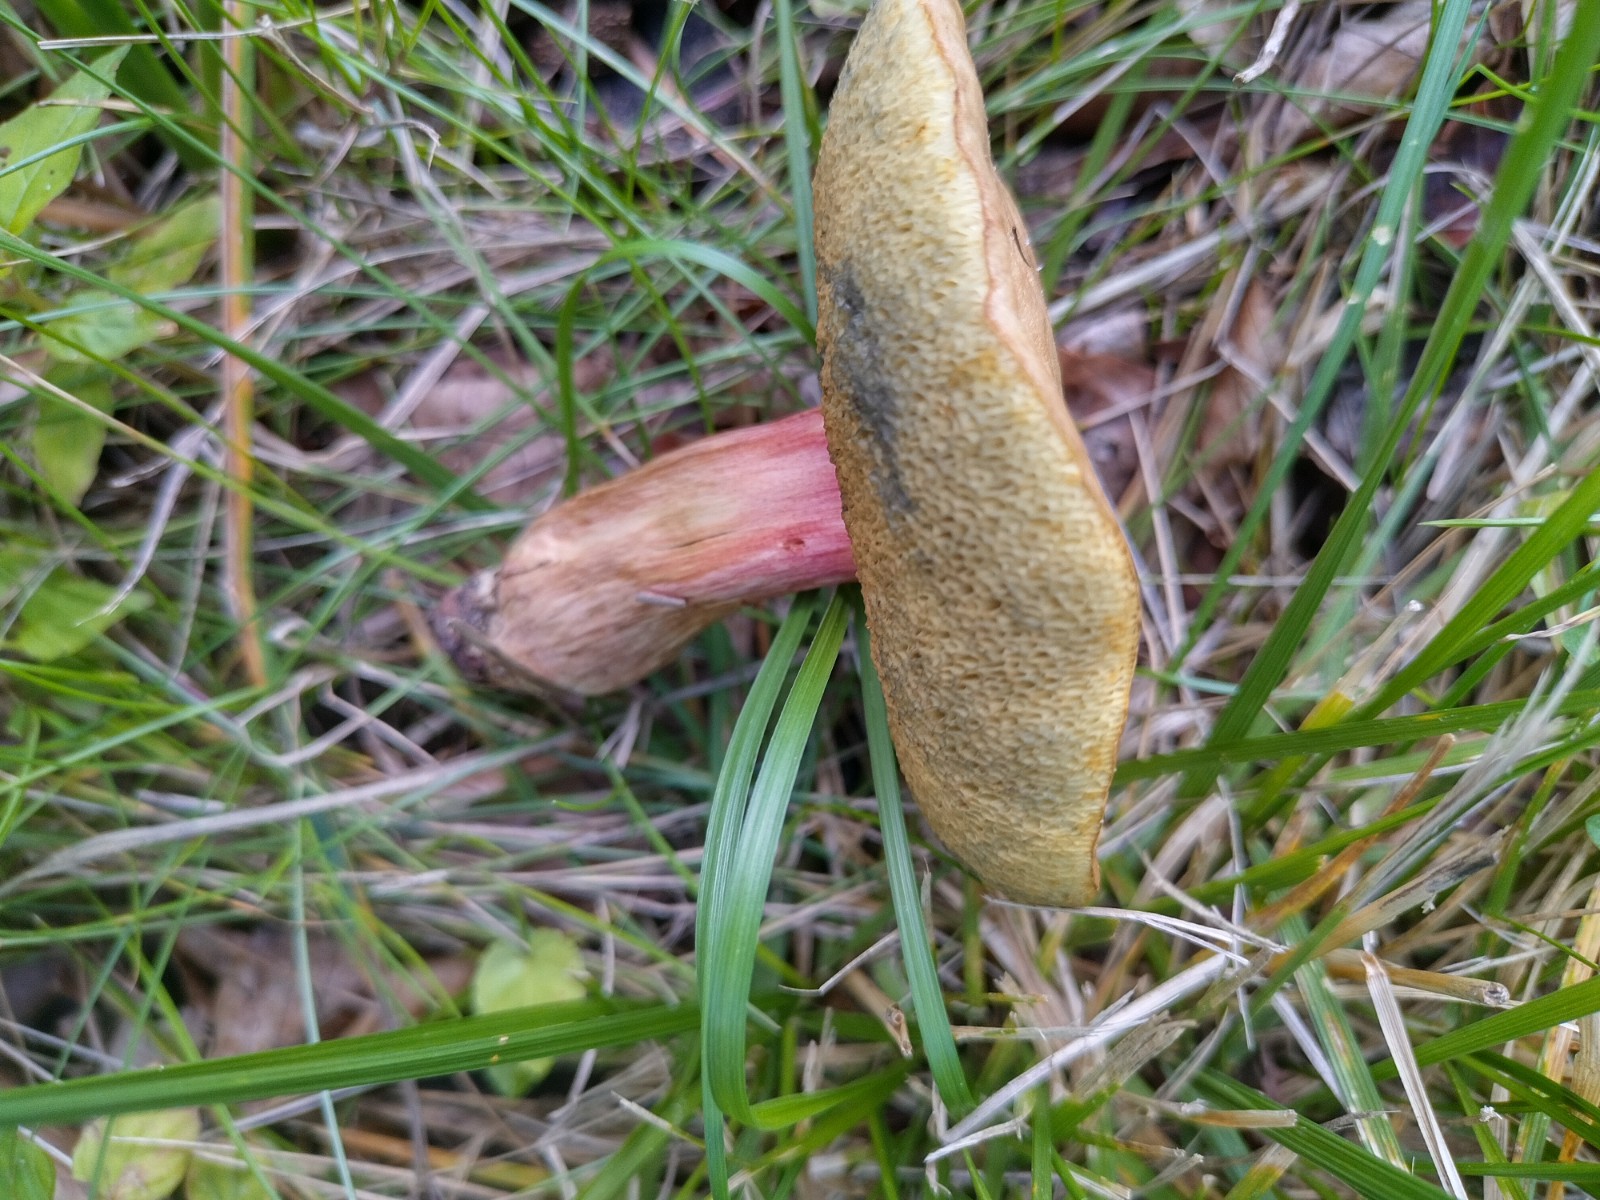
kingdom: Fungi
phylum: Basidiomycota
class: Agaricomycetes
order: Boletales
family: Boletaceae
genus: Xerocomellus
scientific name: Xerocomellus chrysenteron
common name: rødsprukken rørhat
